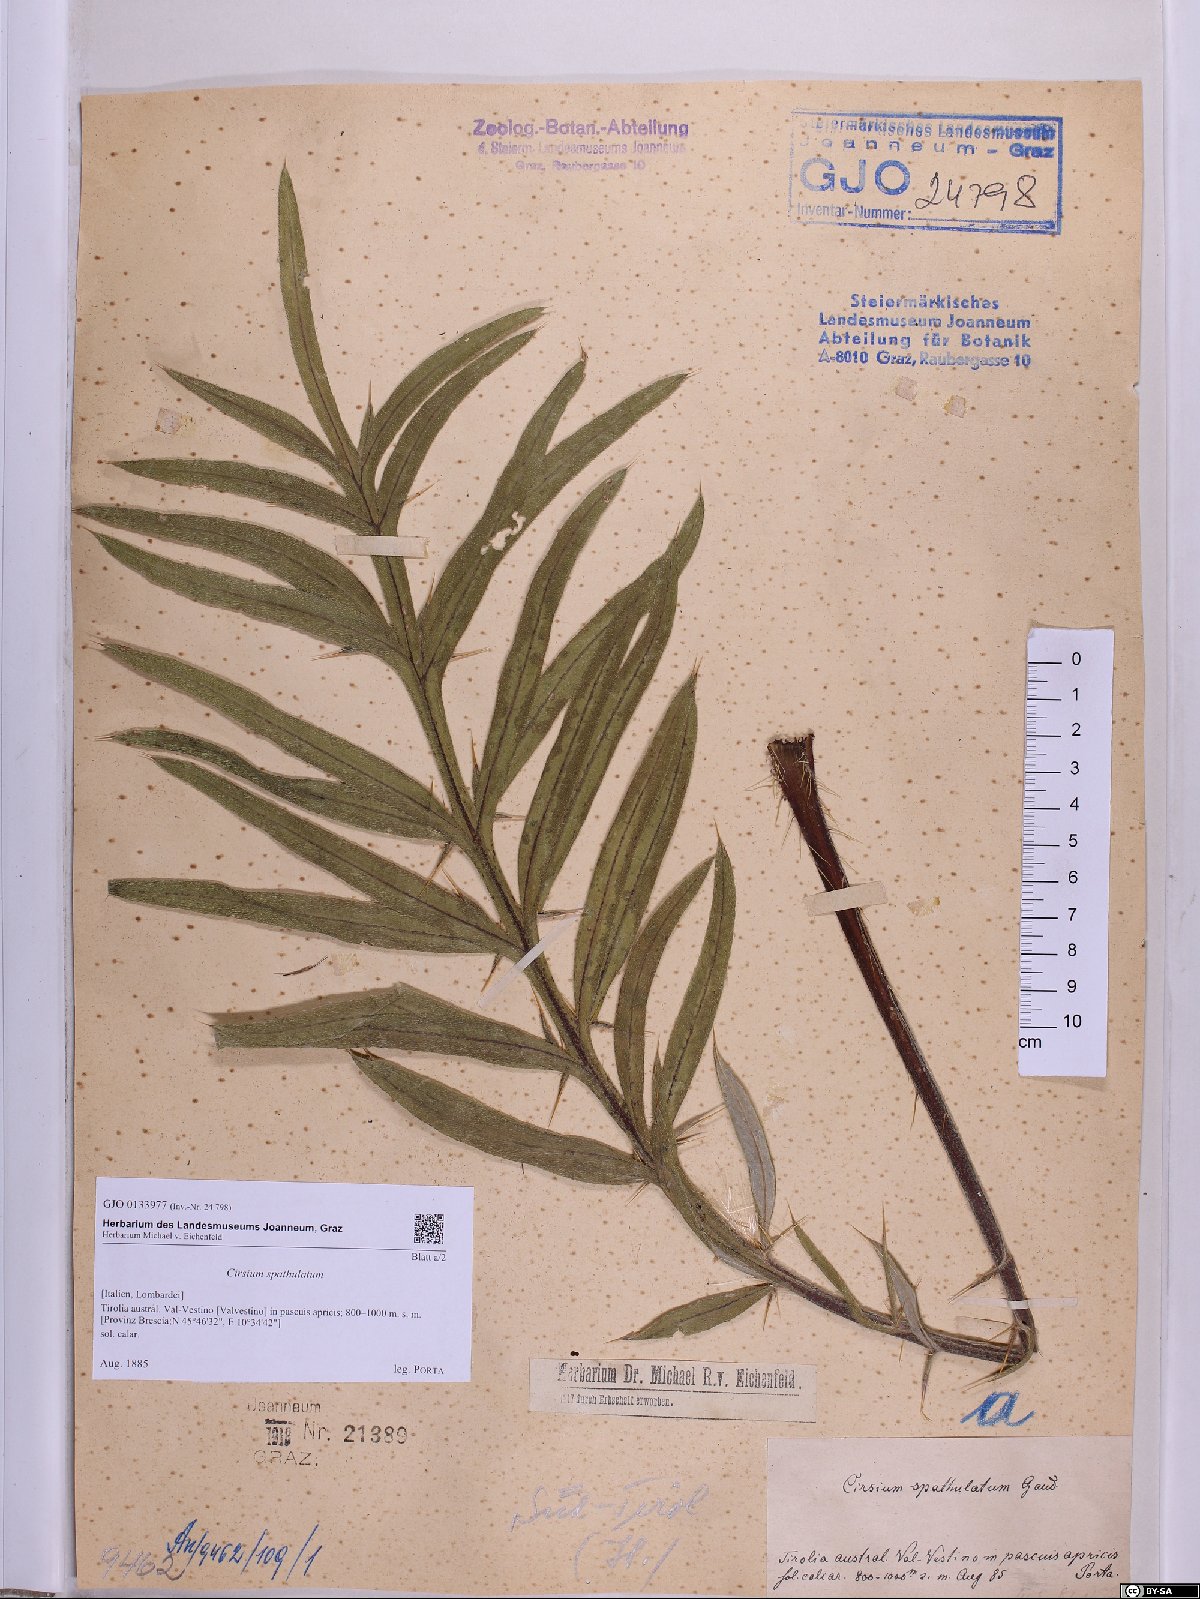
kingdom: Plantae
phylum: Tracheophyta
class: Magnoliopsida
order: Asterales
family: Asteraceae
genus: Lophiolepis
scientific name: Lophiolepis spathulata
